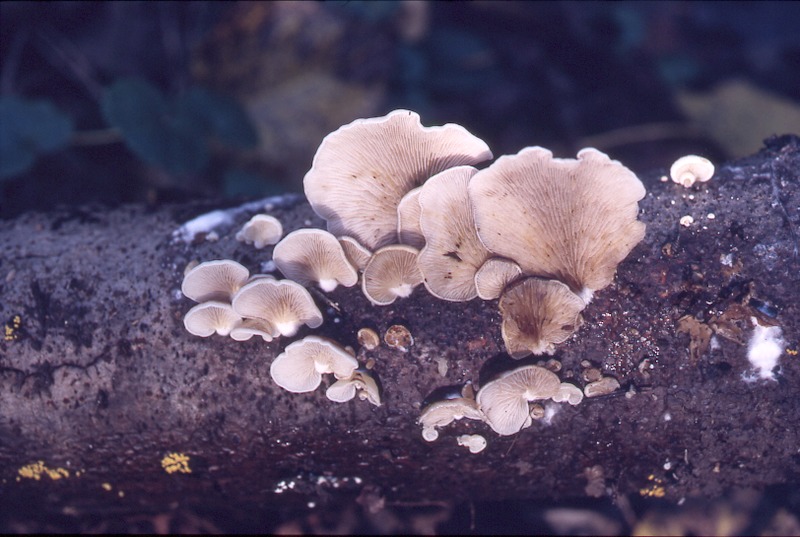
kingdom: Fungi
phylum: Basidiomycota
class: Agaricomycetes
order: Agaricales
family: Crepidotaceae
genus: Crepidotus
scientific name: Crepidotus mollis
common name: Peeling oysterling
